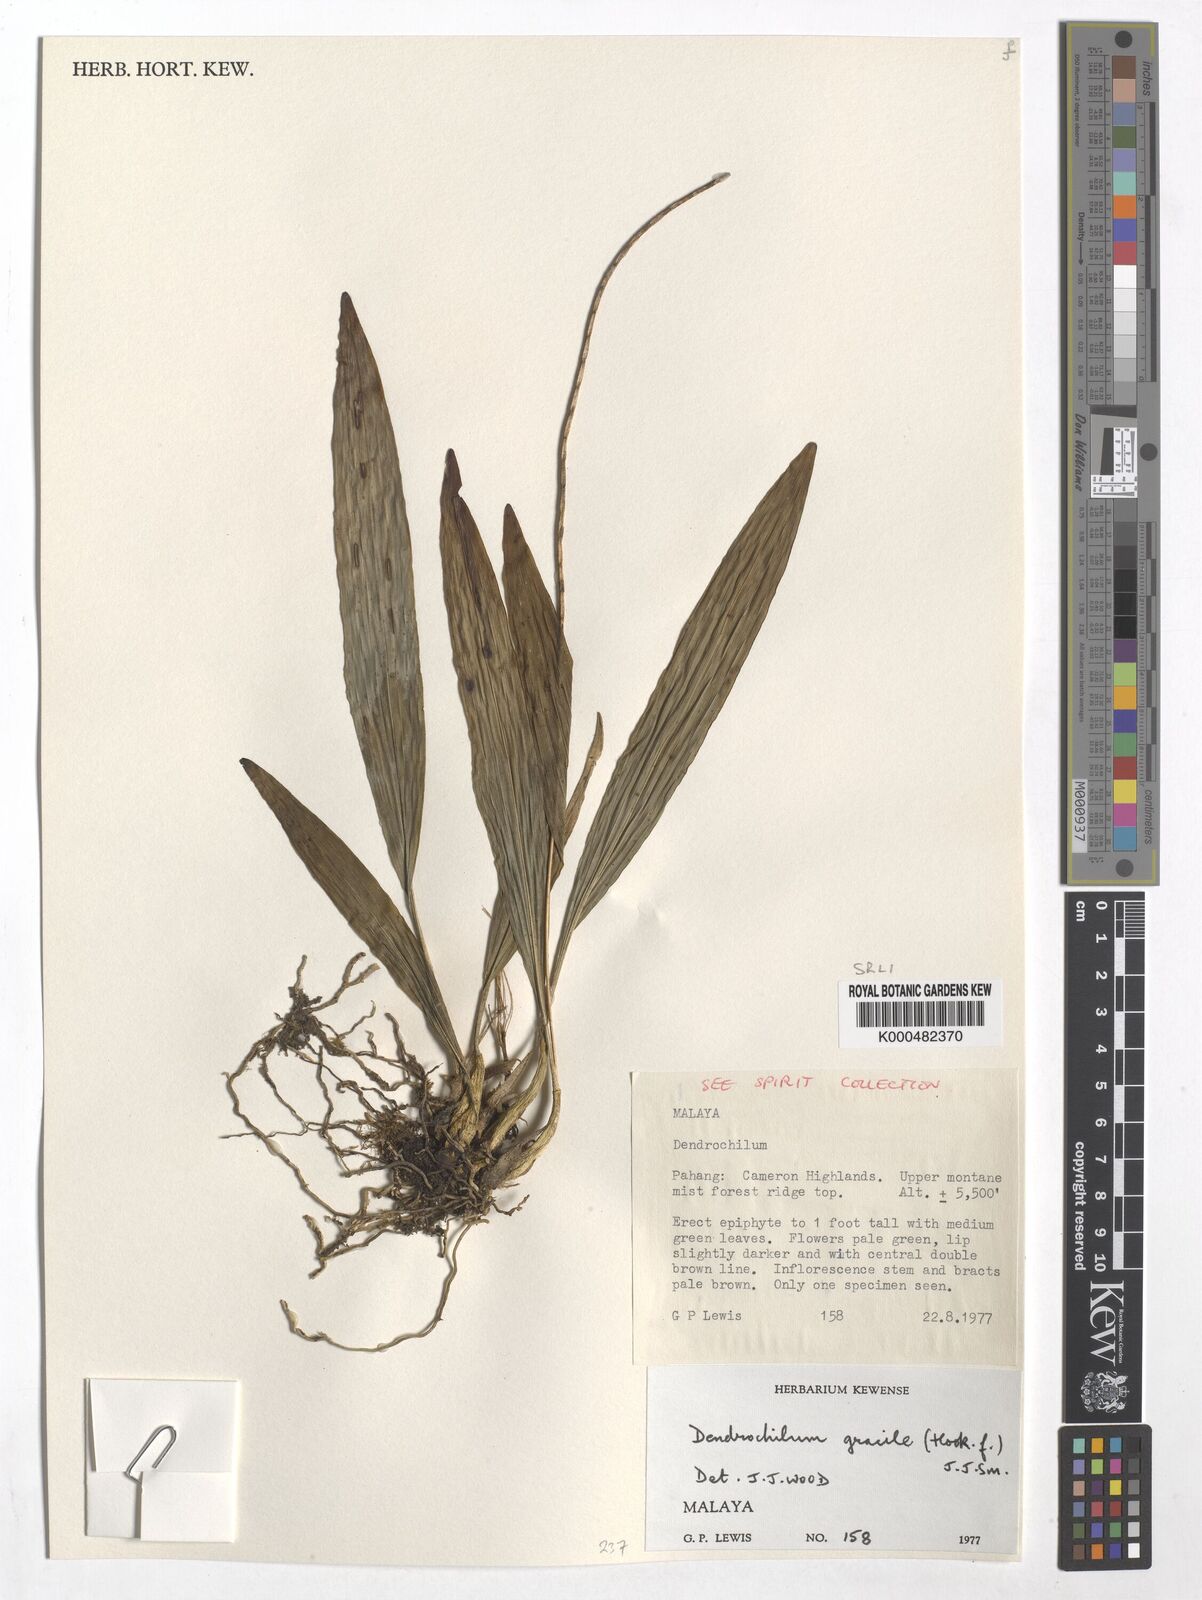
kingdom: Plantae
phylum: Tracheophyta
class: Liliopsida
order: Asparagales
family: Orchidaceae
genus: Coelogyne
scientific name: Coelogyne gracilis
